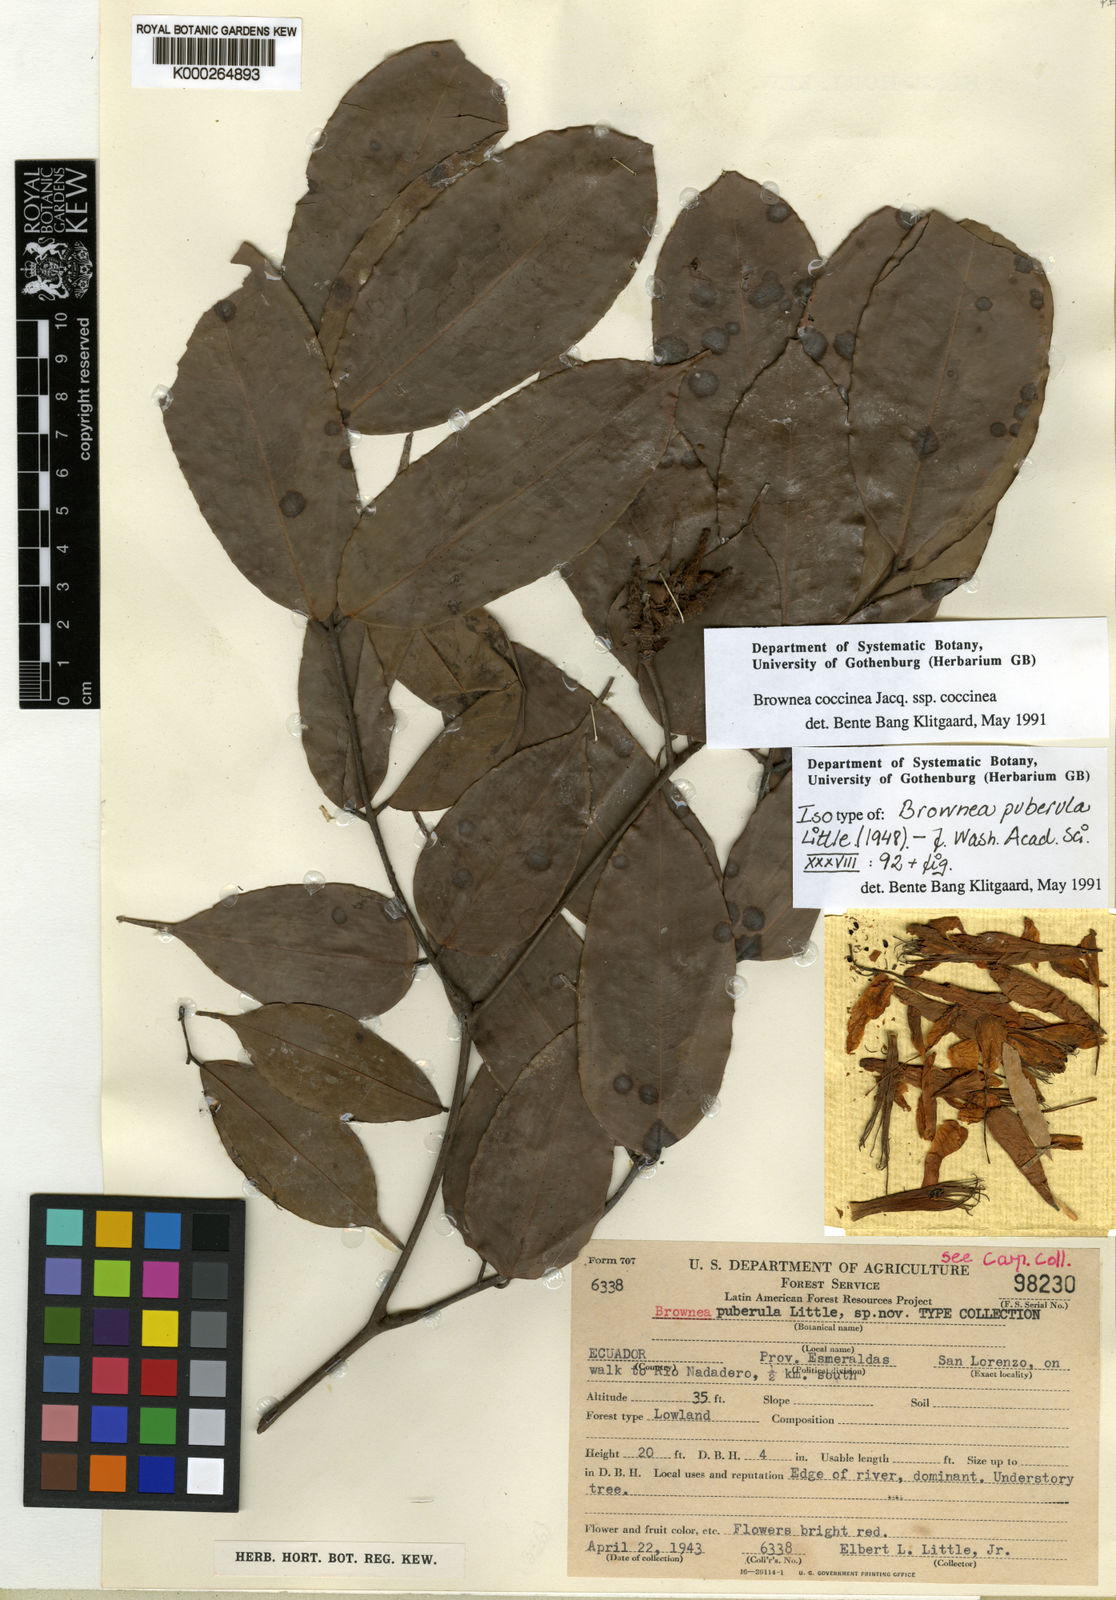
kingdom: Plantae
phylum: Tracheophyta
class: Magnoliopsida
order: Fabales
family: Fabaceae
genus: Brownea
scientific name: Brownea coccinea
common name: Scarlet flame-bean
